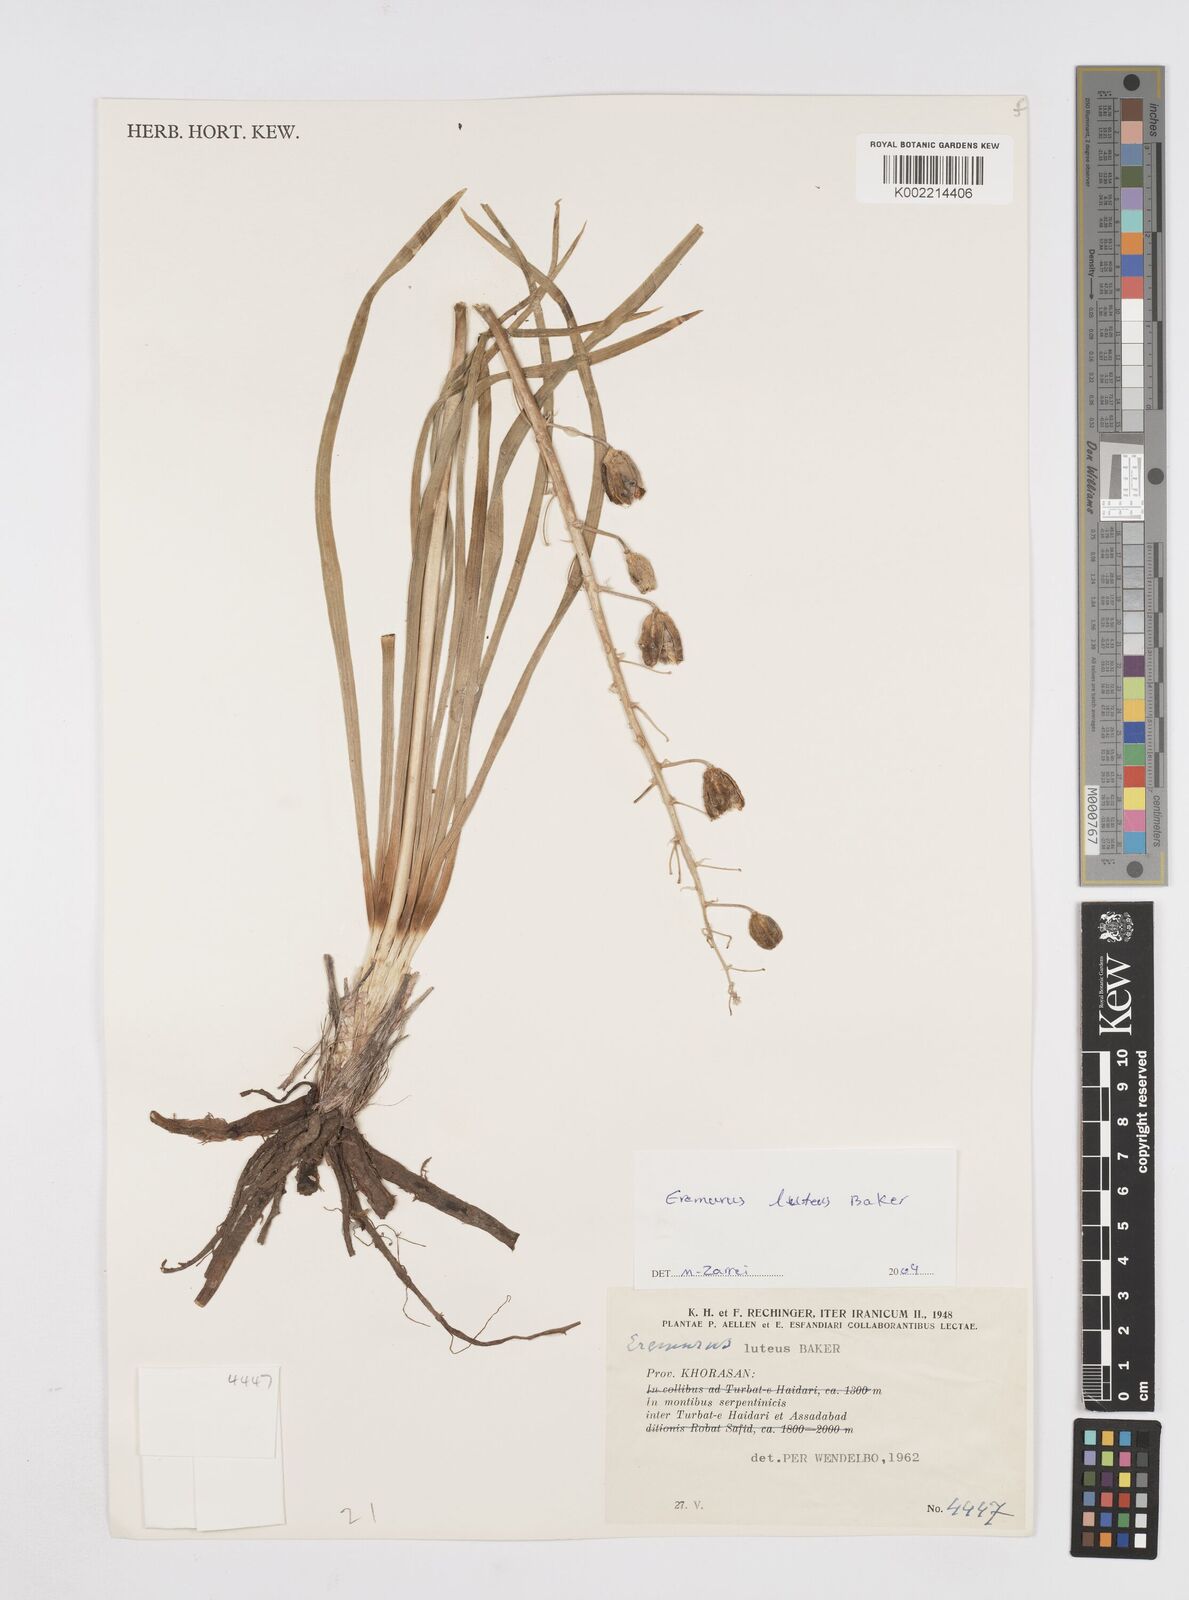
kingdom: Plantae
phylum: Tracheophyta
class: Liliopsida
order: Asparagales
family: Asphodelaceae
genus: Eremurus
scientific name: Eremurus luteus
